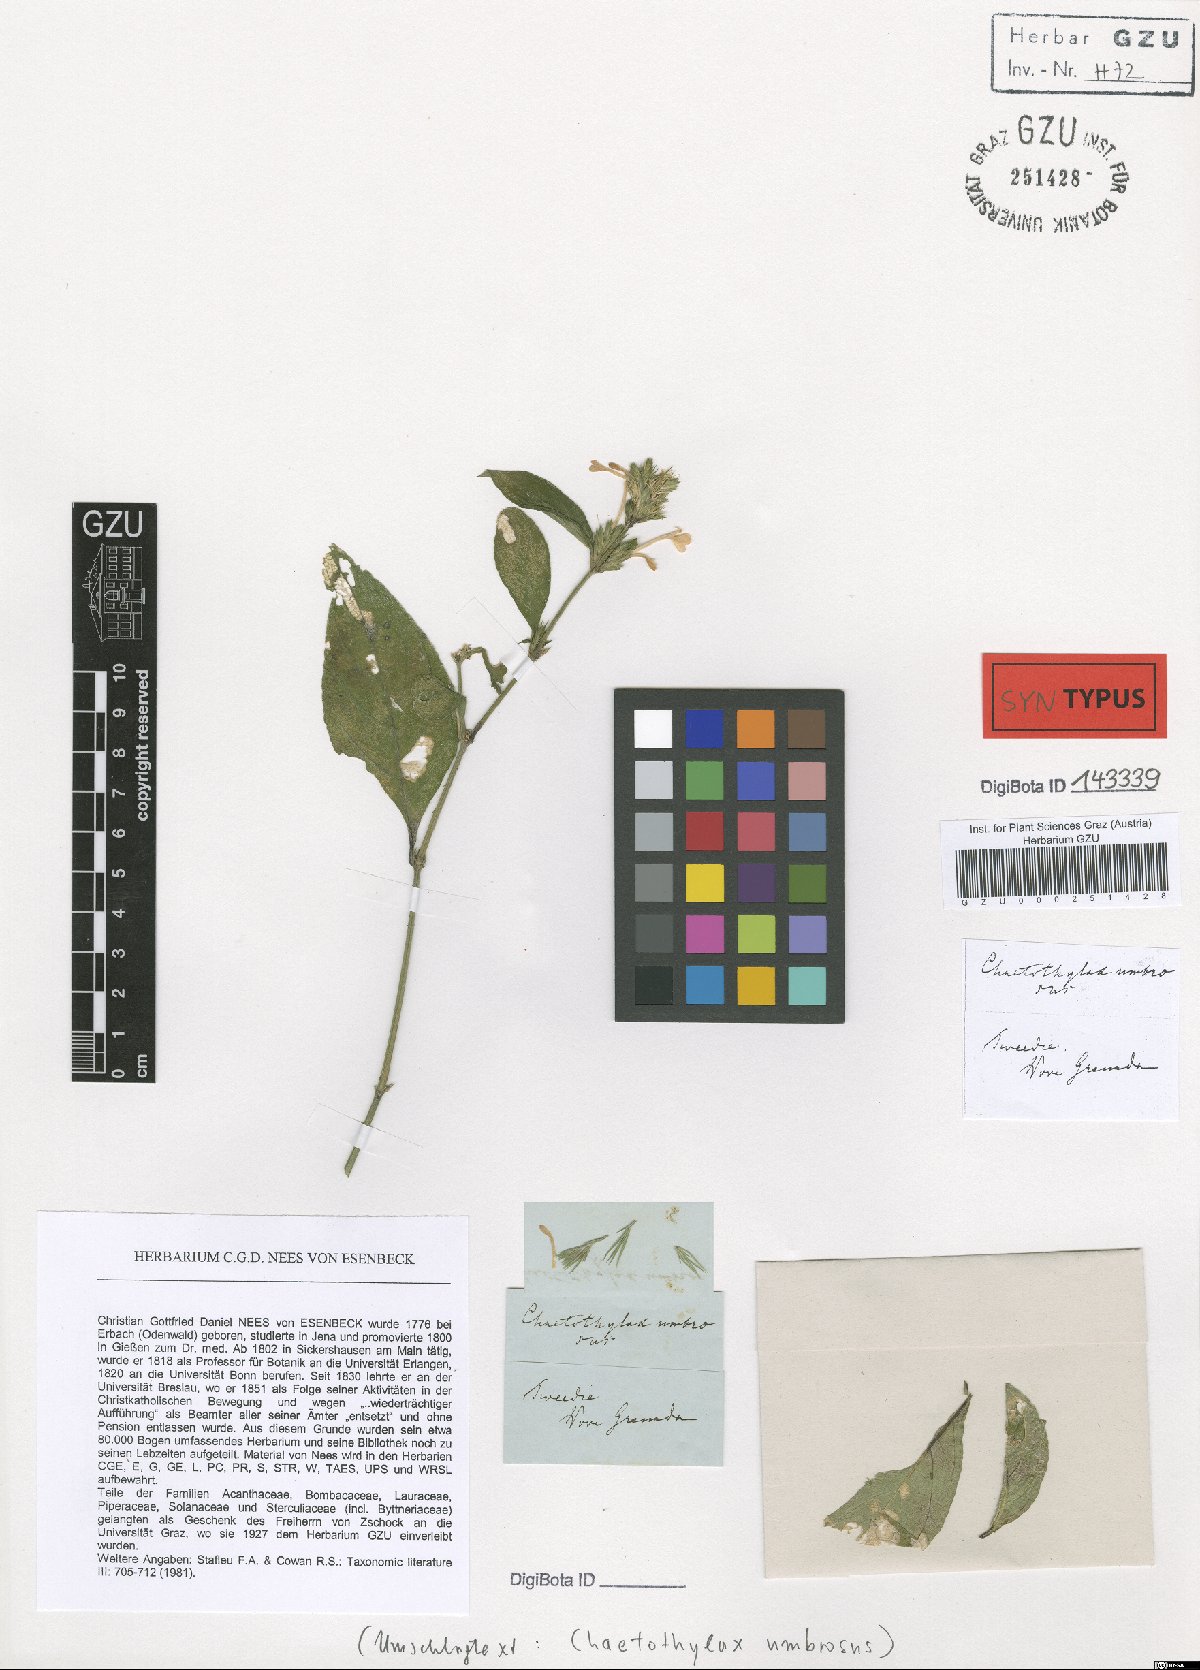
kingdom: Plantae
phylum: Tracheophyta
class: Magnoliopsida
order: Lamiales
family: Acanthaceae
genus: Justicia
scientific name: Justicia goudotii
